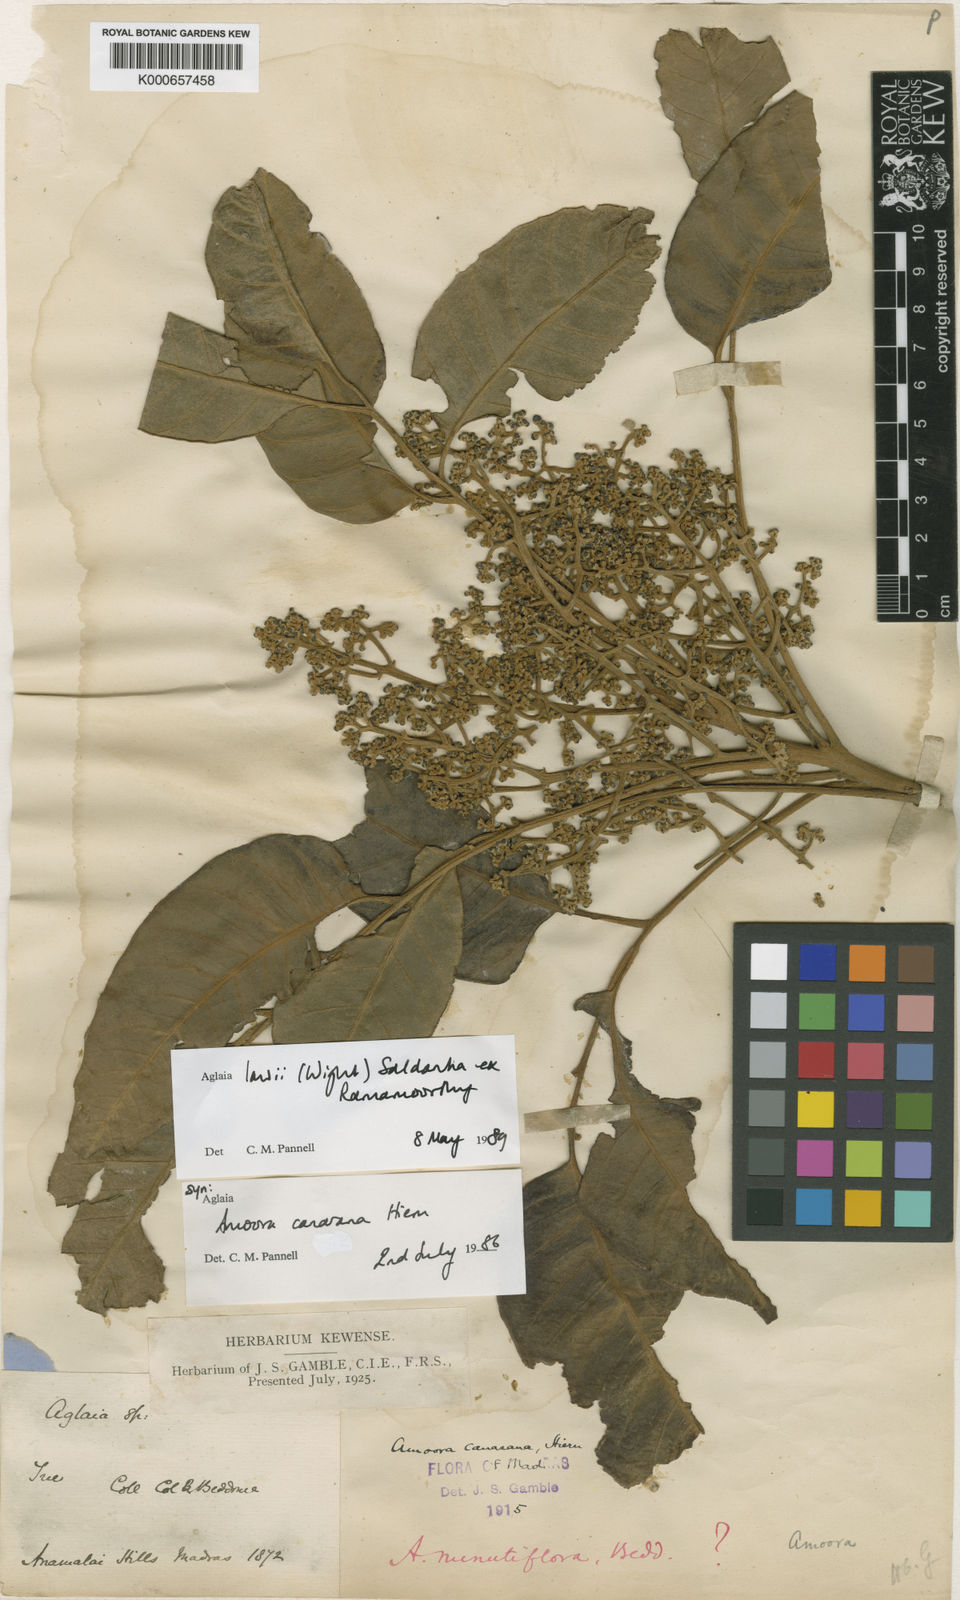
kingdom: Plantae
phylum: Tracheophyta
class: Magnoliopsida
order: Sapindales
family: Meliaceae
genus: Aglaia
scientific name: Aglaia
